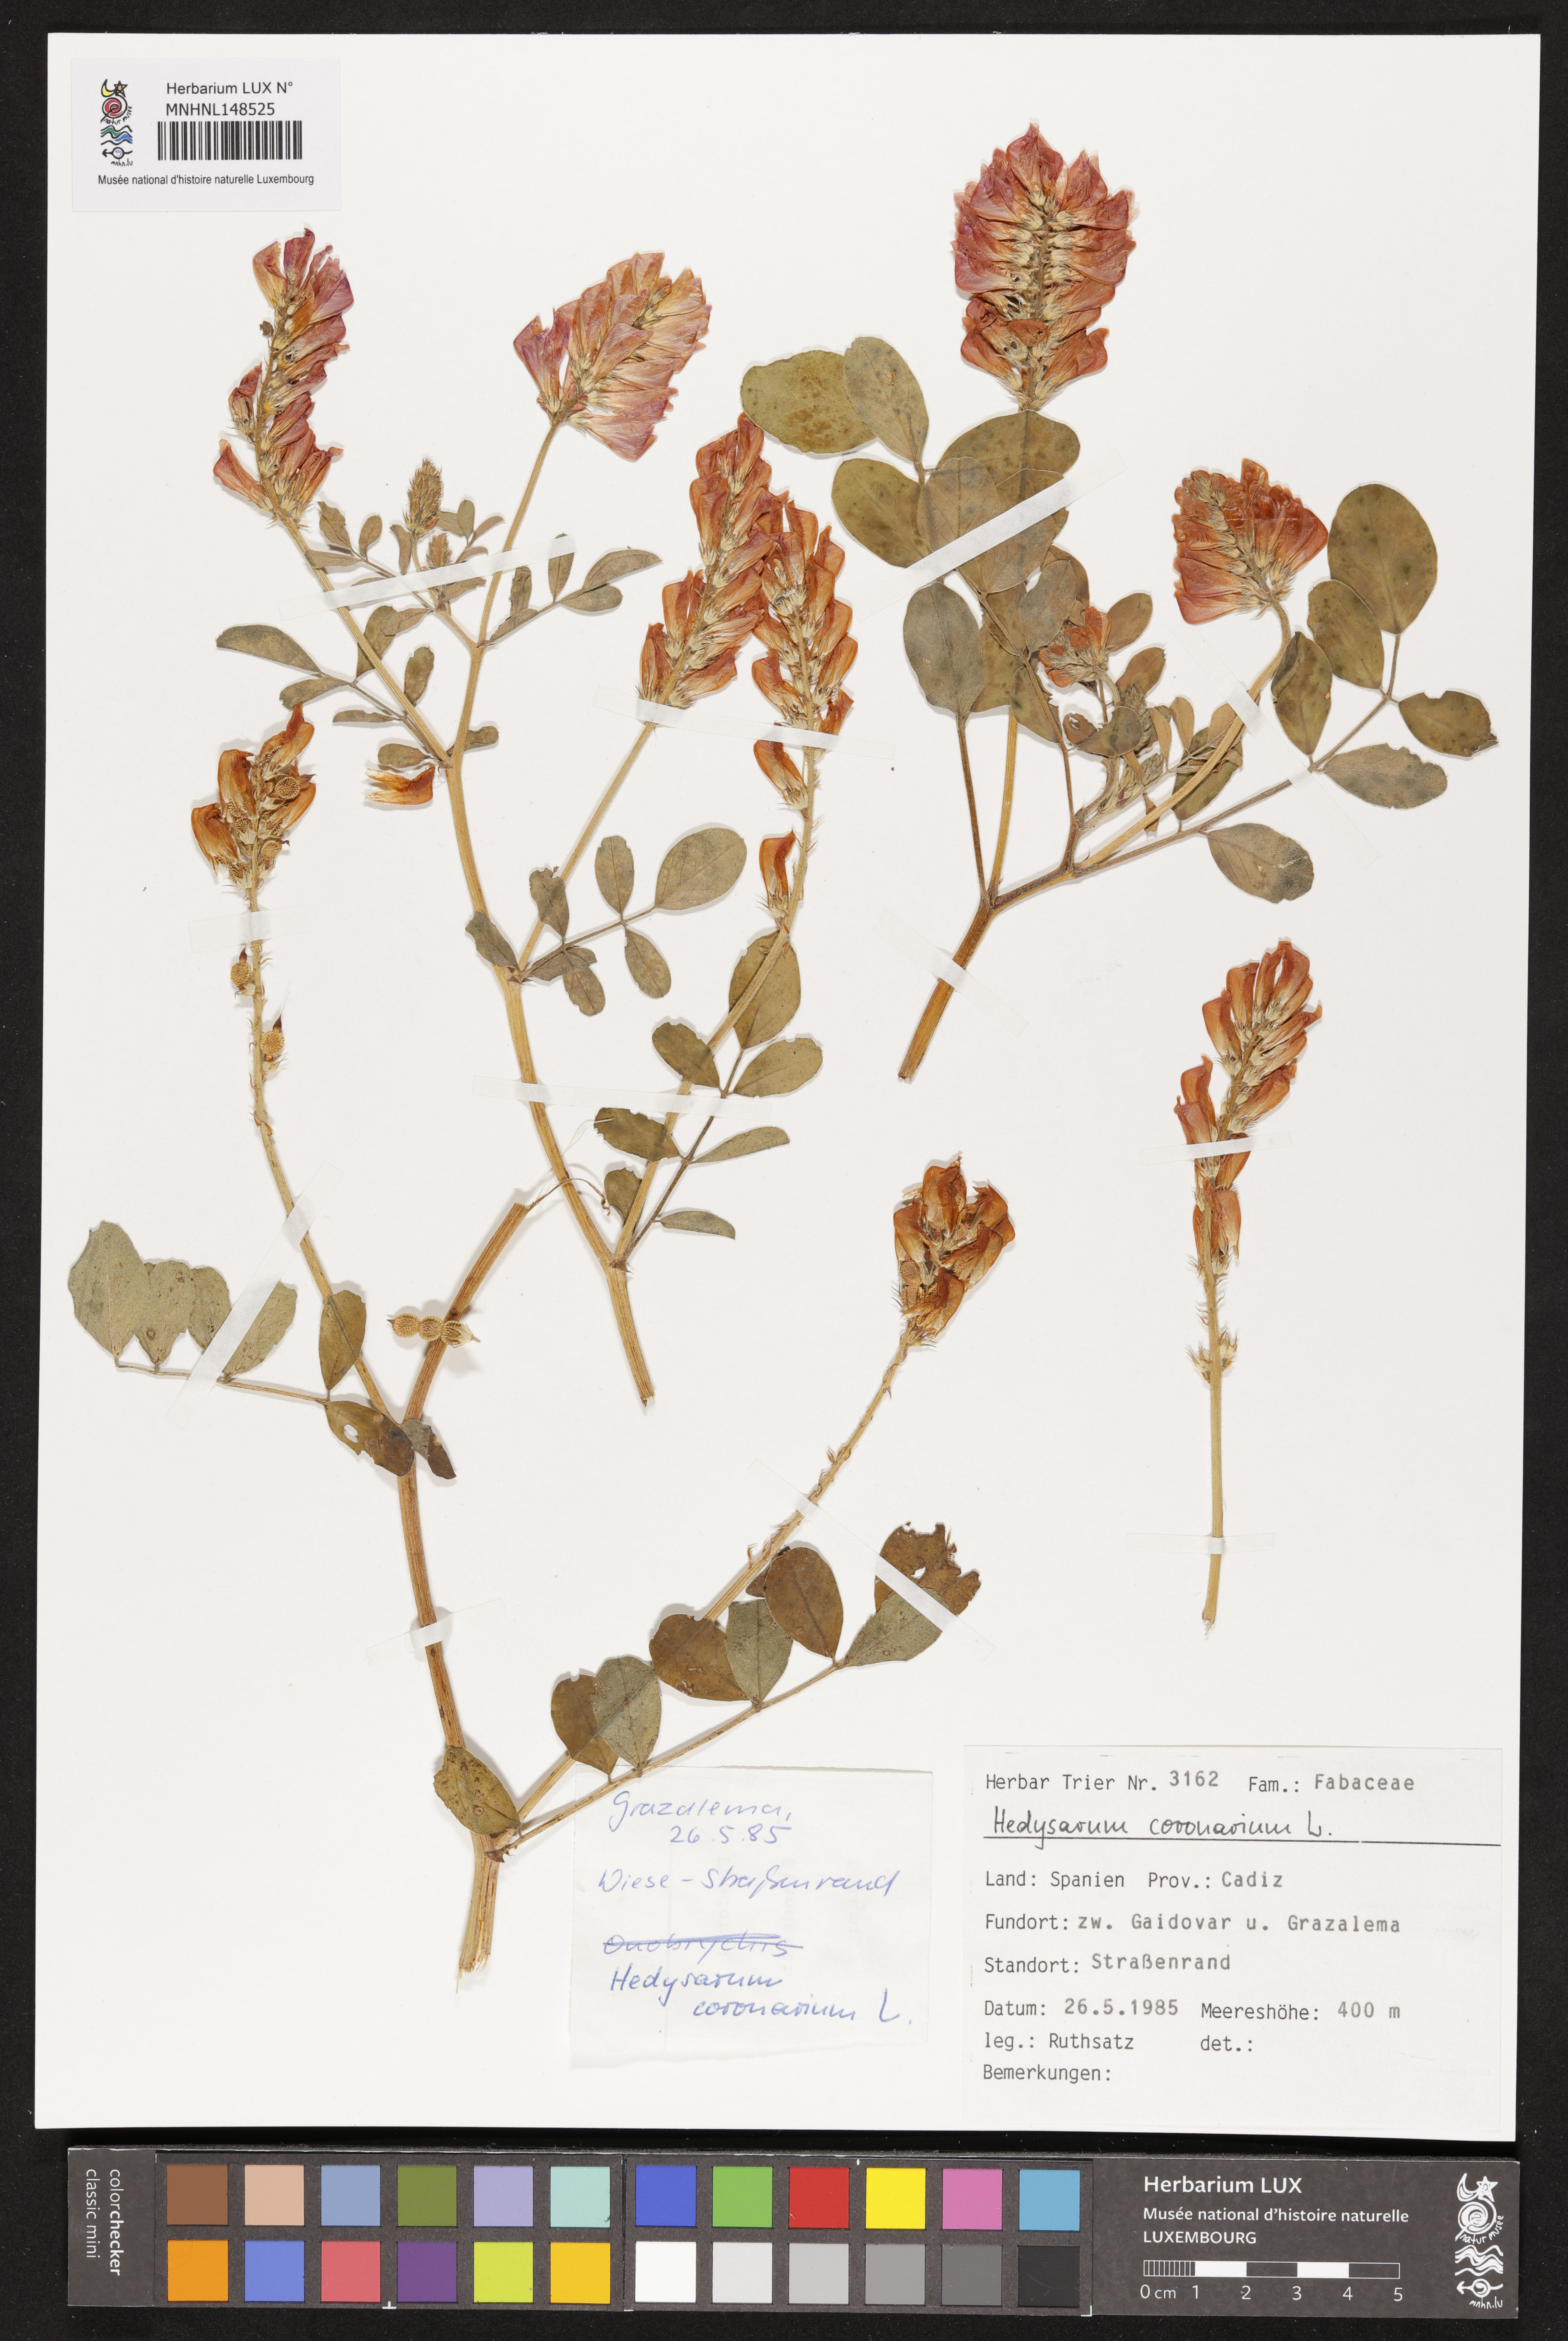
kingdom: Plantae
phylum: Tracheophyta
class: Magnoliopsida
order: Fabales
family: Fabaceae
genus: Sulla
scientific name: Sulla coronaria
